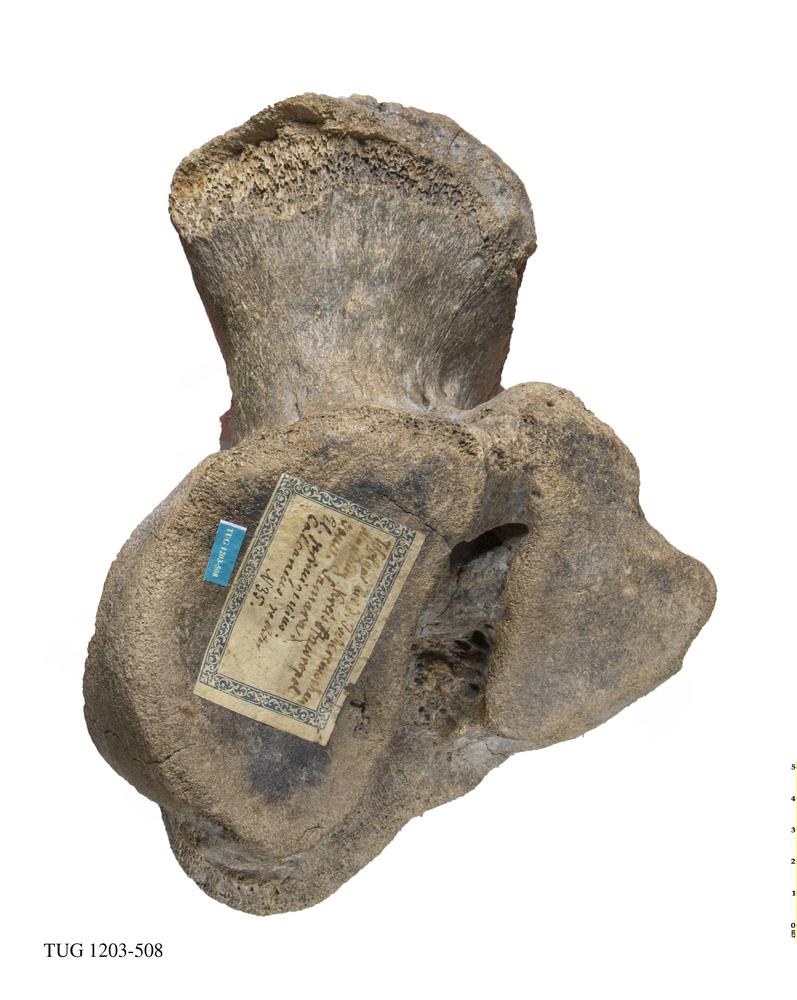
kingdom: Animalia
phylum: Chordata
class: Mammalia
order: Proboscidea
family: Elephantidae
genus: Mammuthus
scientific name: Mammuthus primigenius
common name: Wooly mammoth
